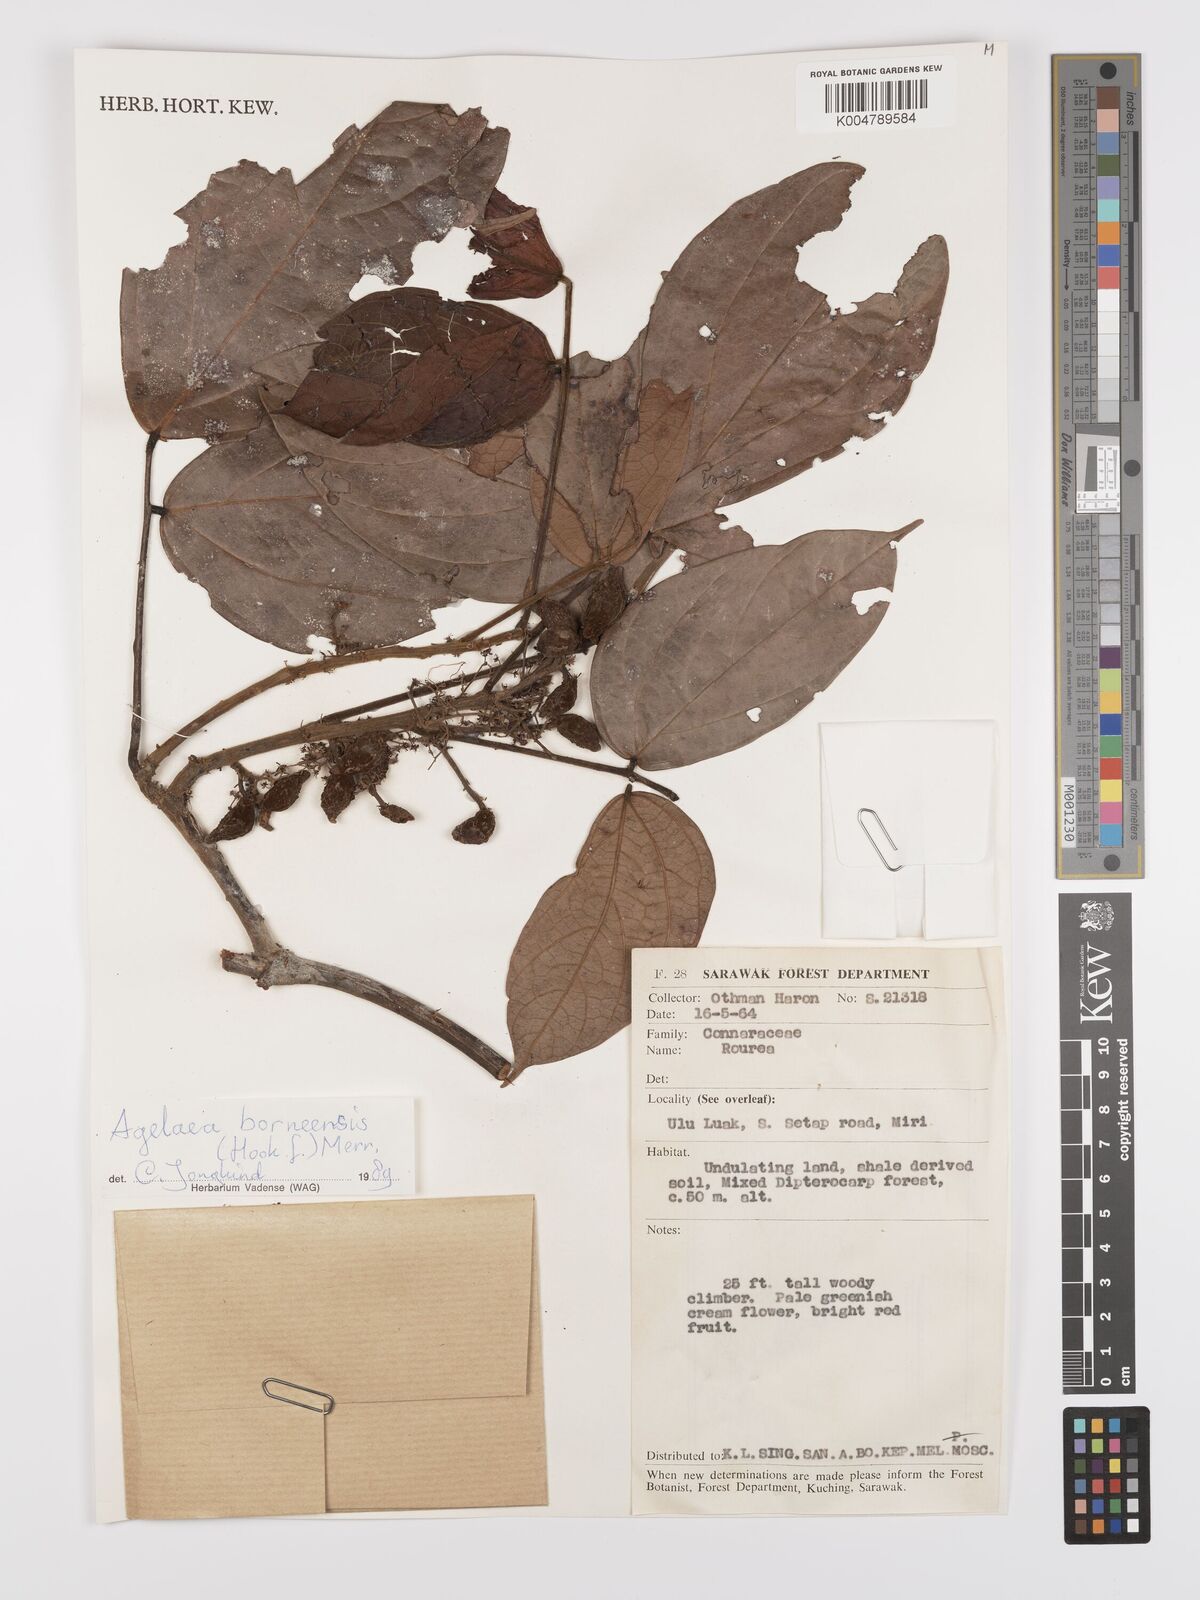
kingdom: Plantae
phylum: Tracheophyta
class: Magnoliopsida
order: Oxalidales
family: Connaraceae
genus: Agelaea
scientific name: Agelaea borneensis
